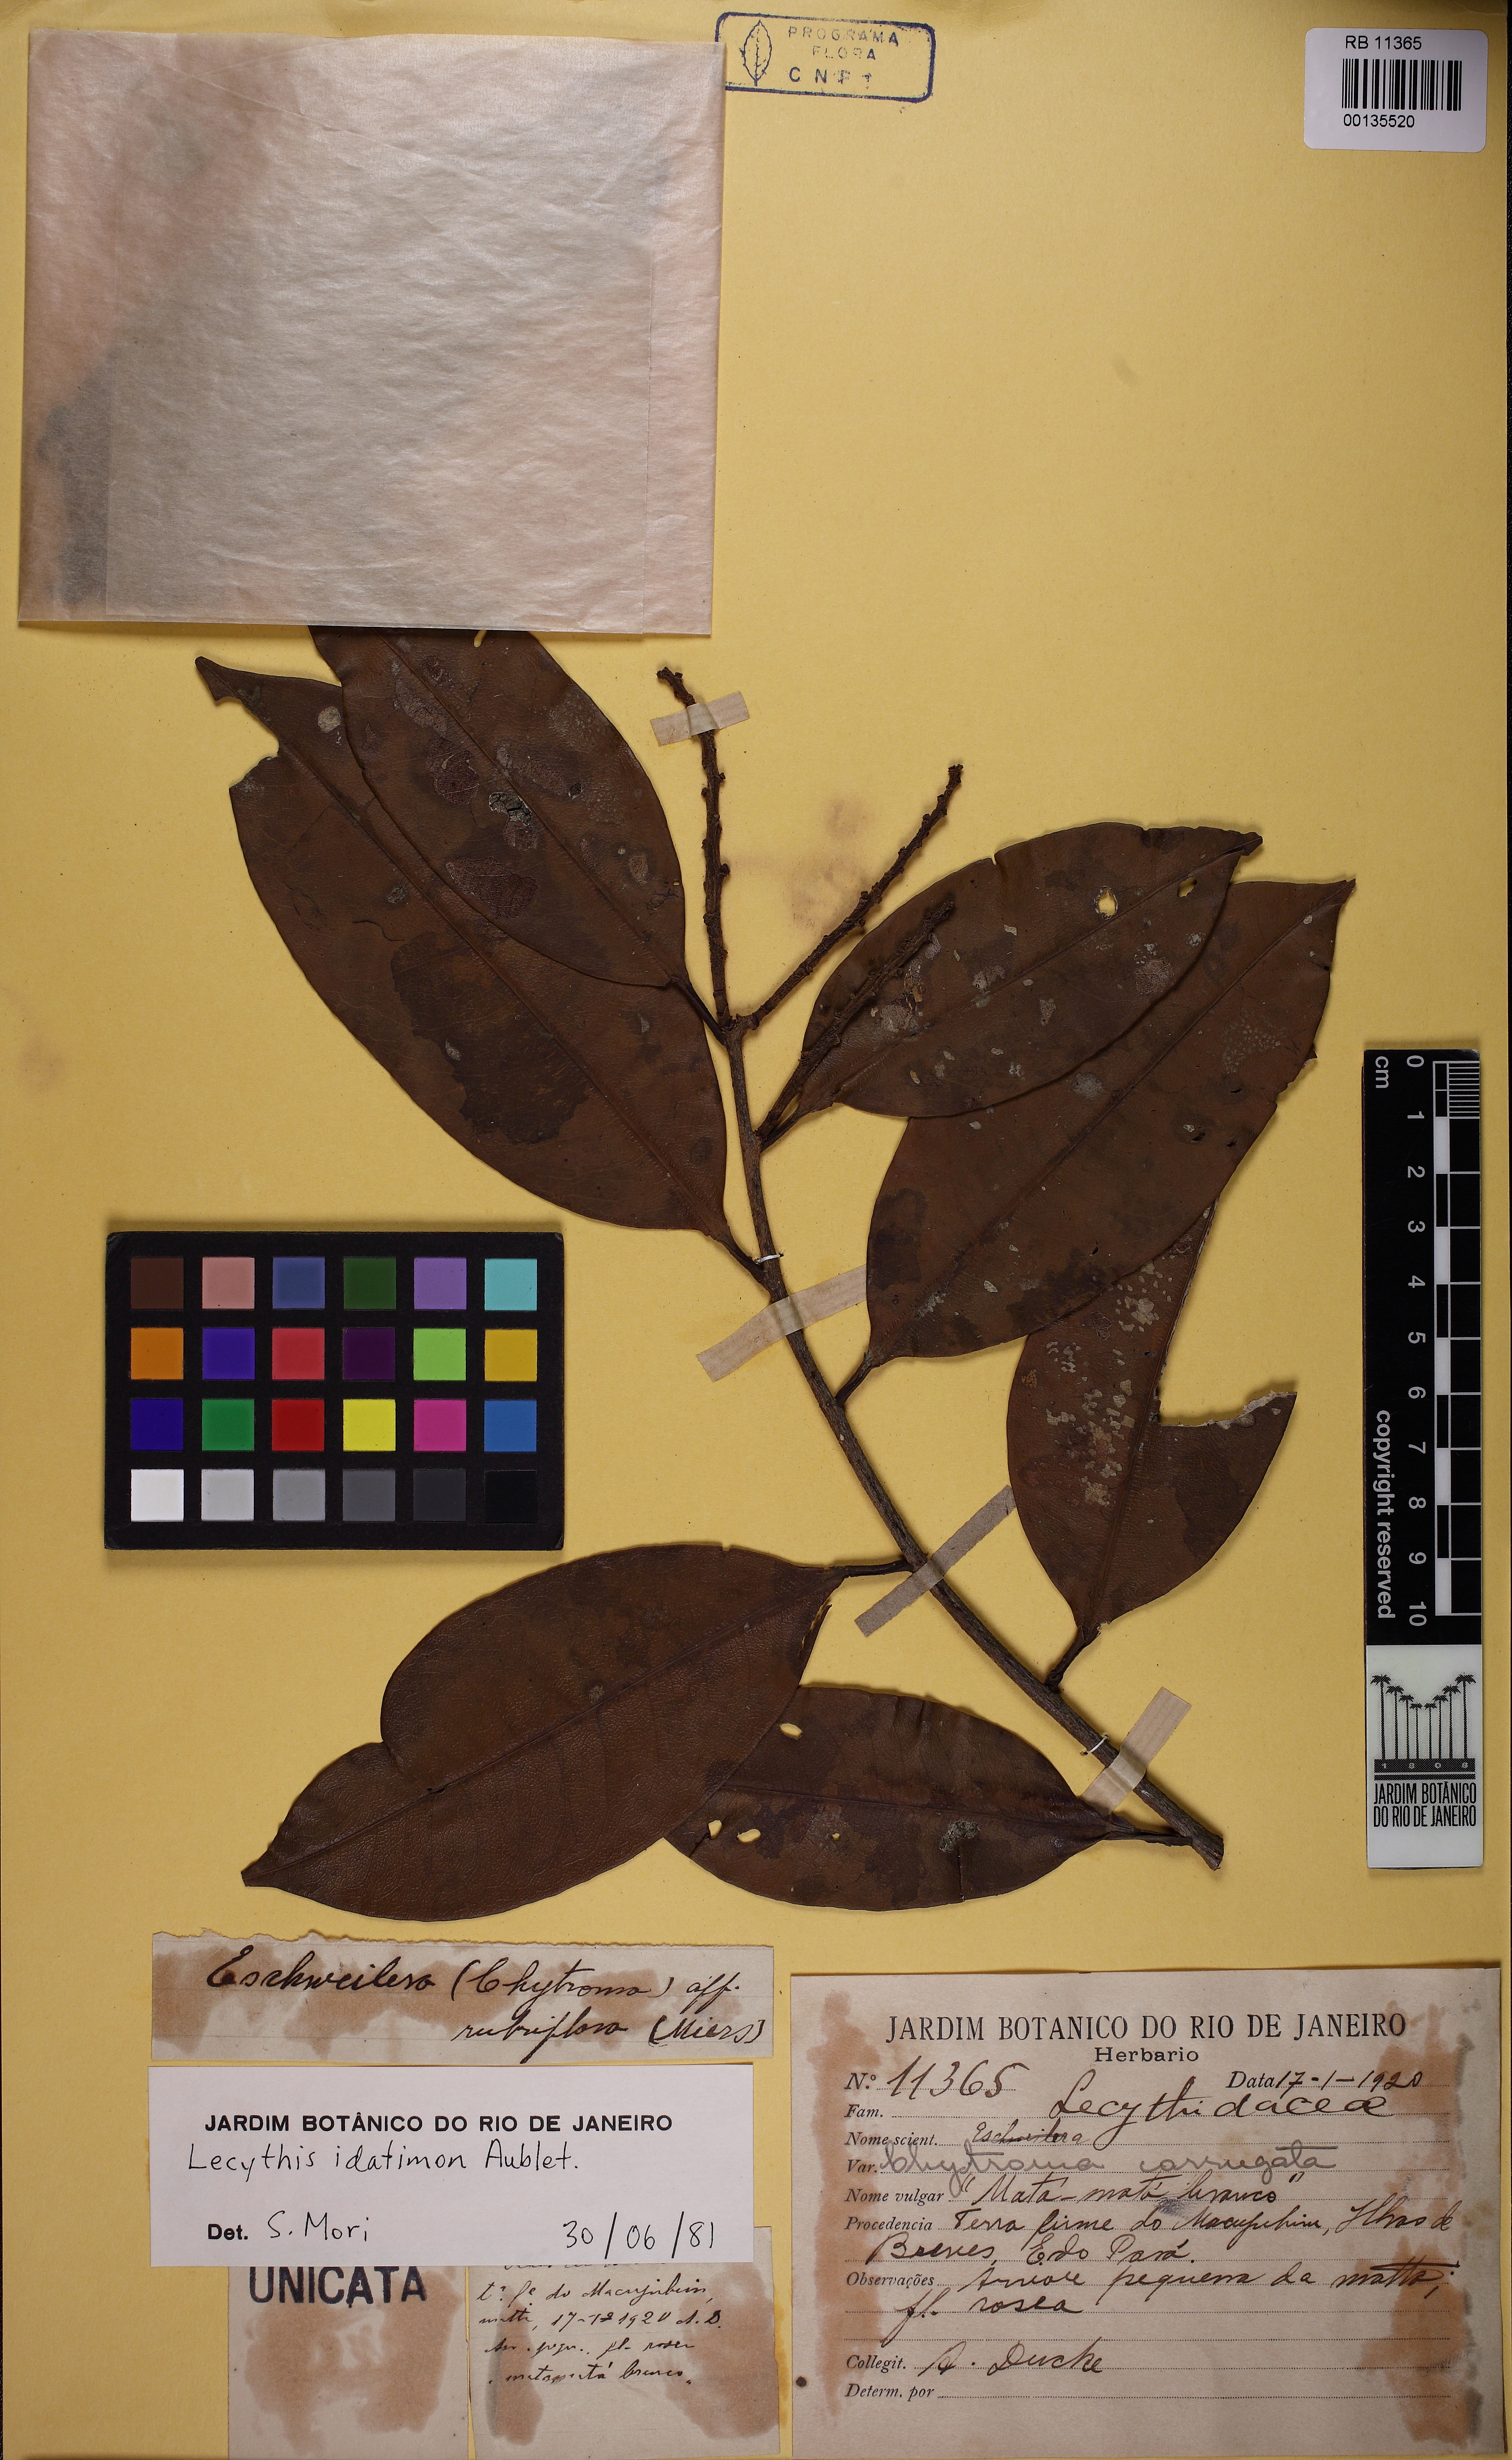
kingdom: Plantae
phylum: Tracheophyta
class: Magnoliopsida
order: Ericales
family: Lecythidaceae
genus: Lecythis
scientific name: Lecythis idatimon
